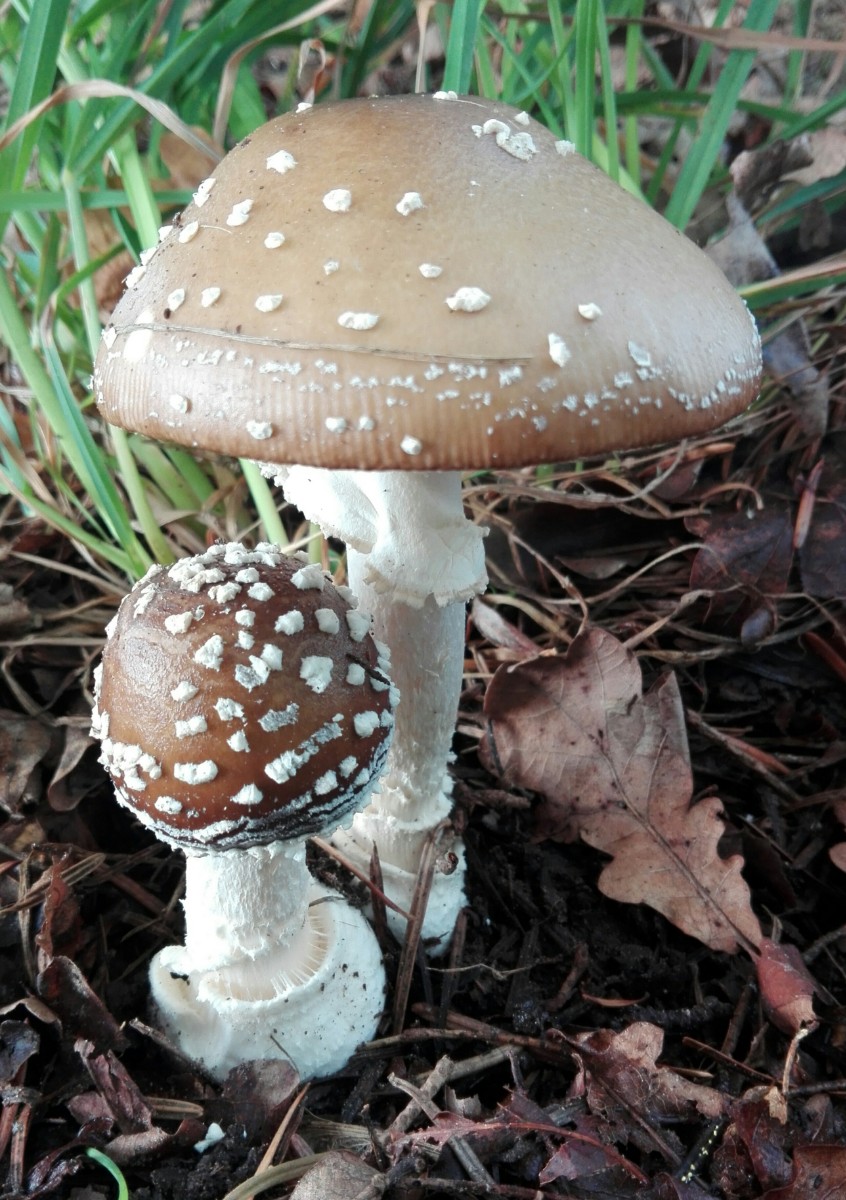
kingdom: Fungi
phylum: Basidiomycota
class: Agaricomycetes
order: Agaricales
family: Amanitaceae
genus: Amanita
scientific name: Amanita pantherina
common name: panter-fluesvamp
